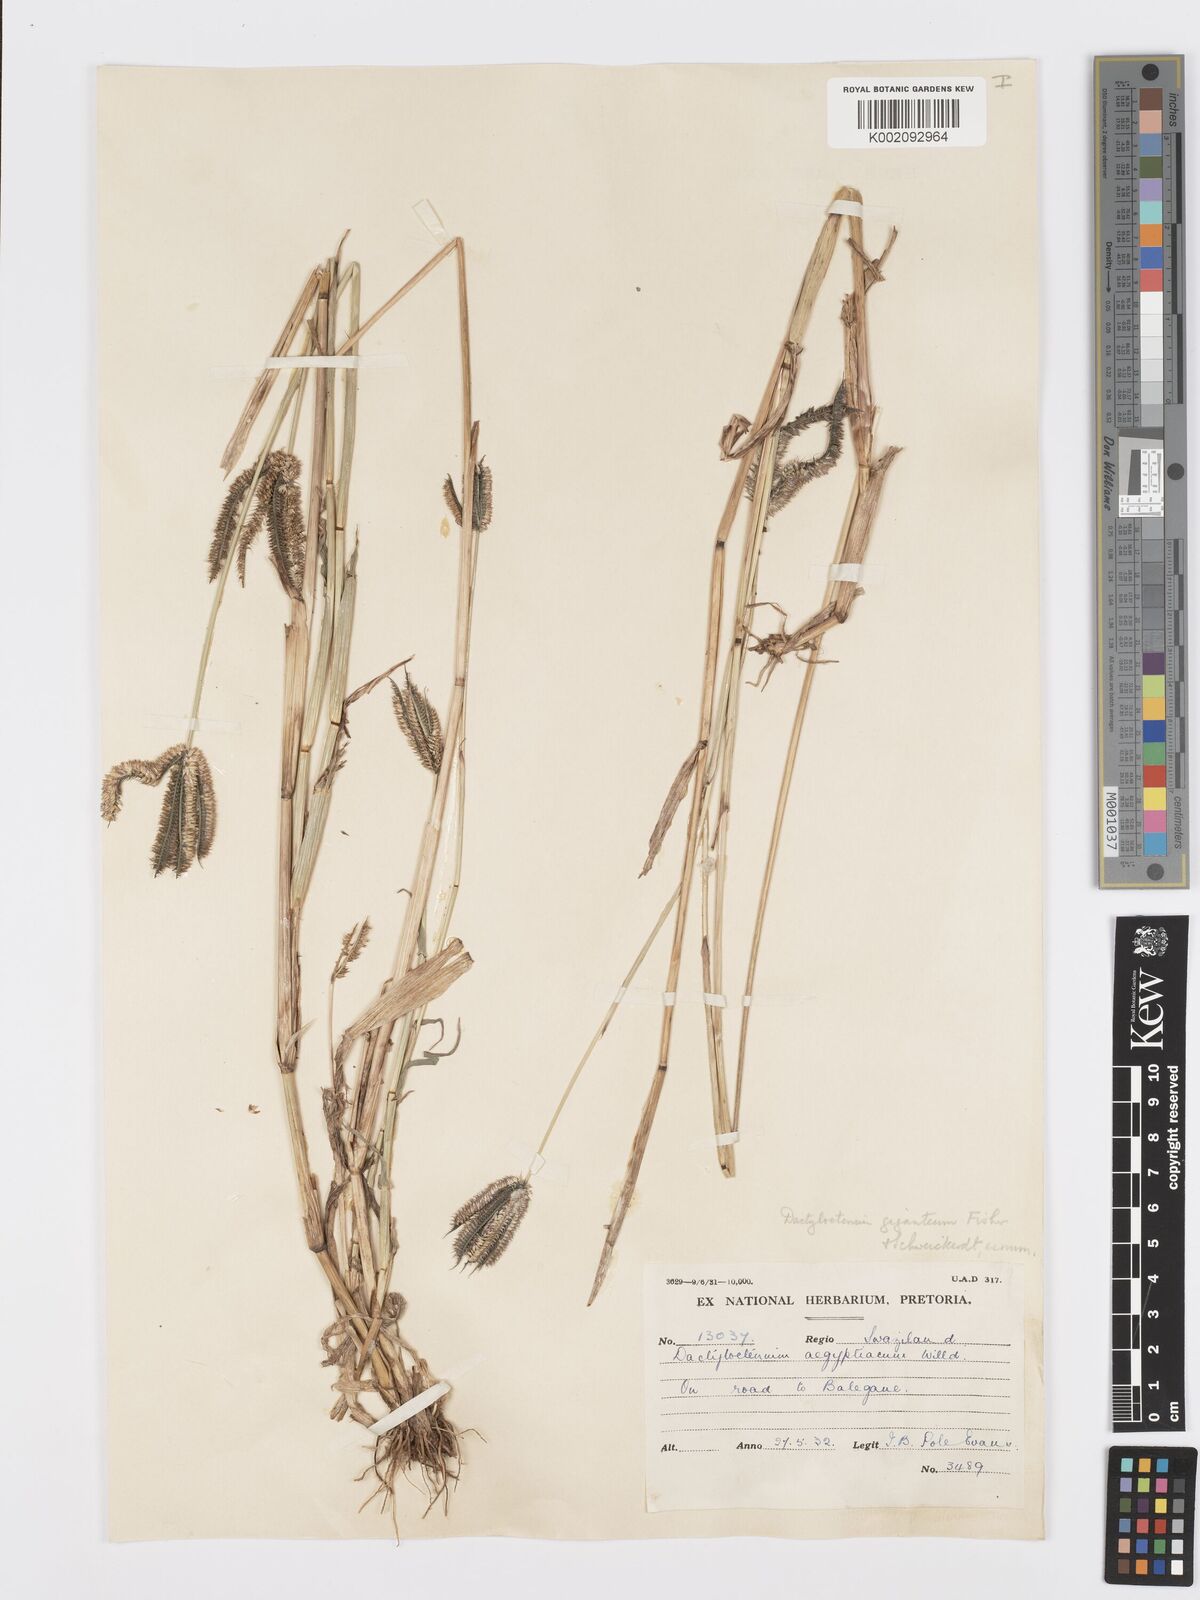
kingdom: Plantae
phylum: Tracheophyta
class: Liliopsida
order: Poales
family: Poaceae
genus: Dactyloctenium
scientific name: Dactyloctenium giganteum
